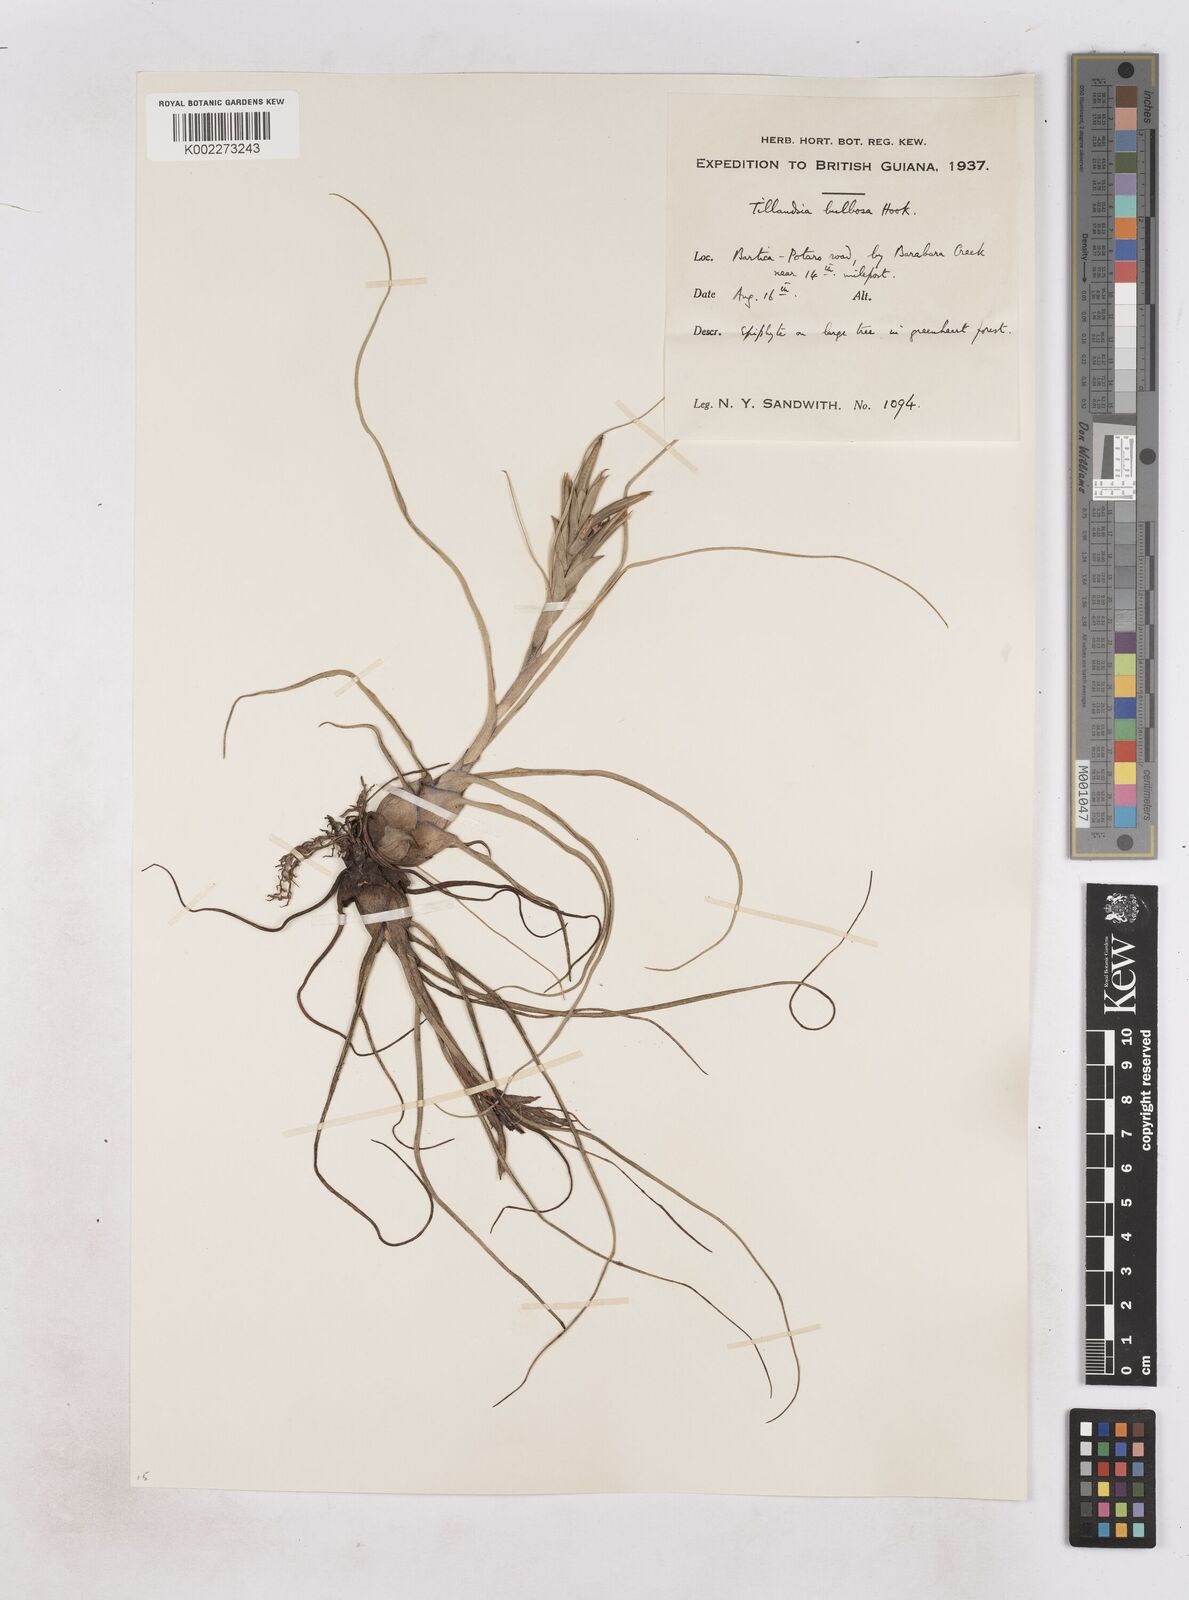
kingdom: Plantae
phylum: Tracheophyta
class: Liliopsida
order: Poales
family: Bromeliaceae
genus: Tillandsia
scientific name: Tillandsia bulbosa
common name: Bulbous airplant
